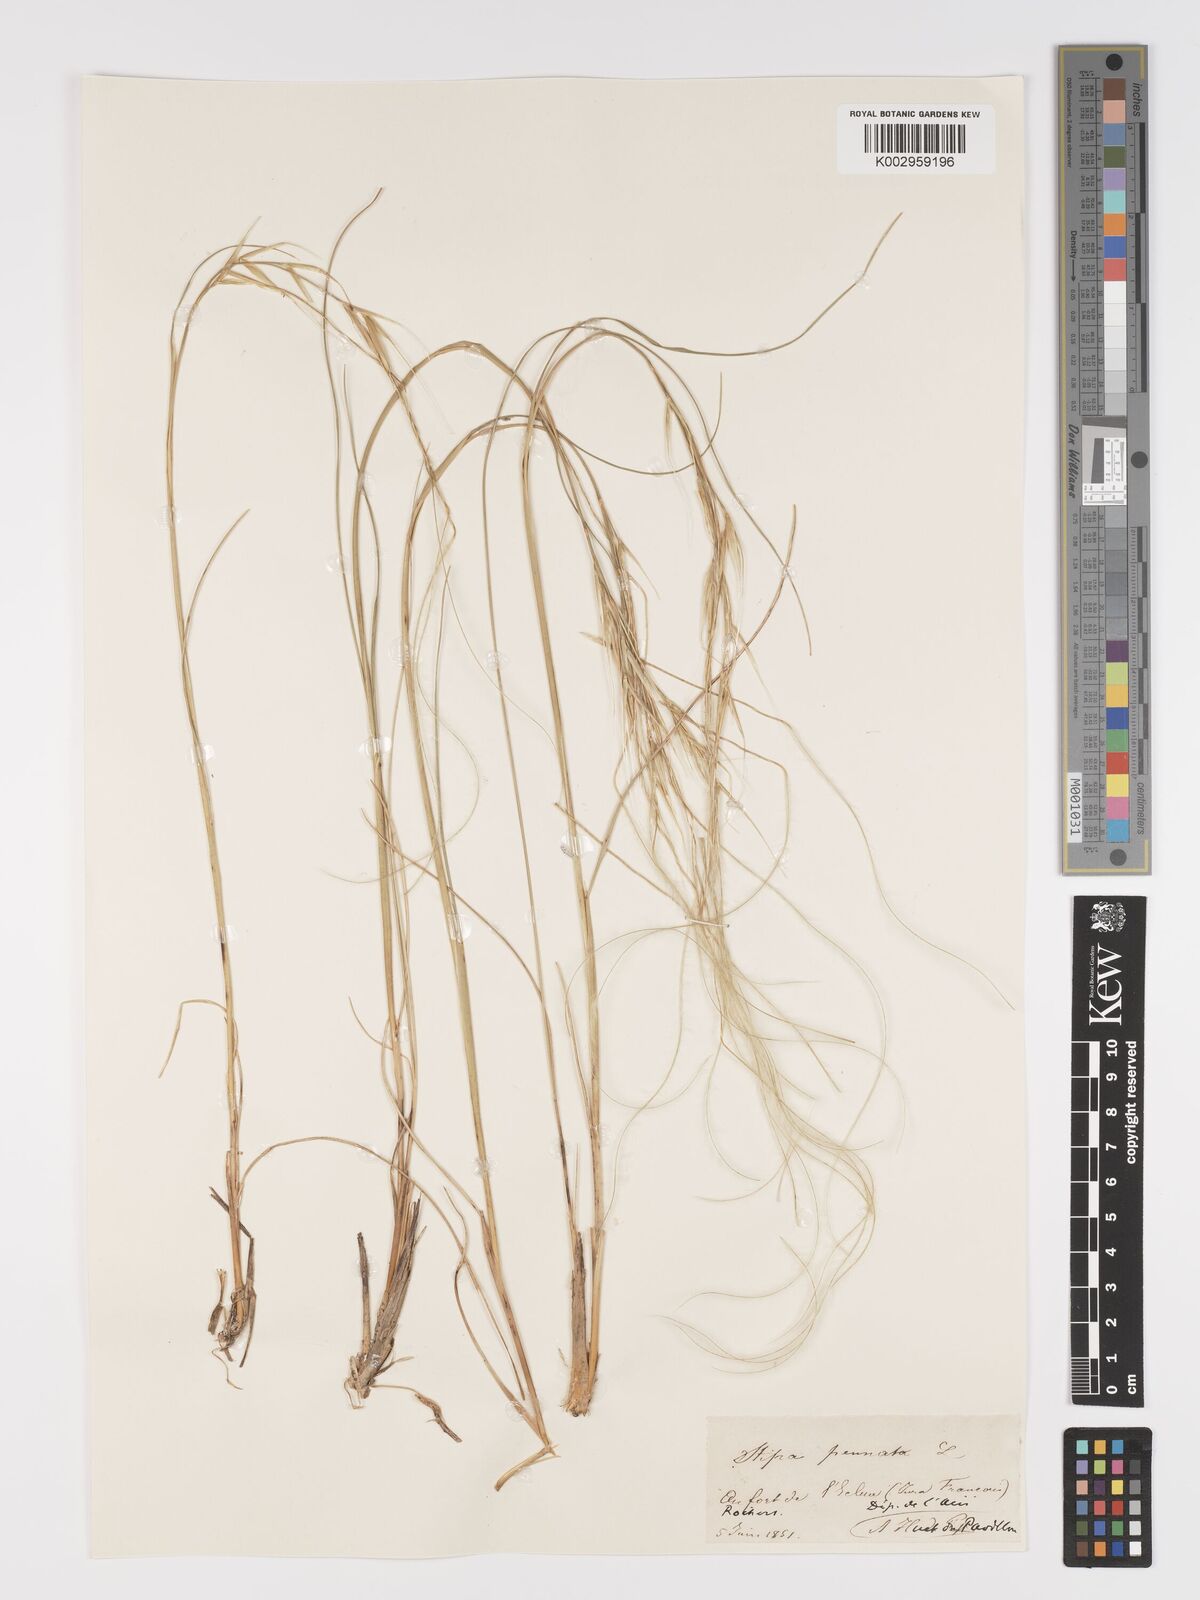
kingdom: Plantae
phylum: Tracheophyta
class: Liliopsida
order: Poales
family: Poaceae
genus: Stipa
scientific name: Stipa pennata
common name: European feather grass
